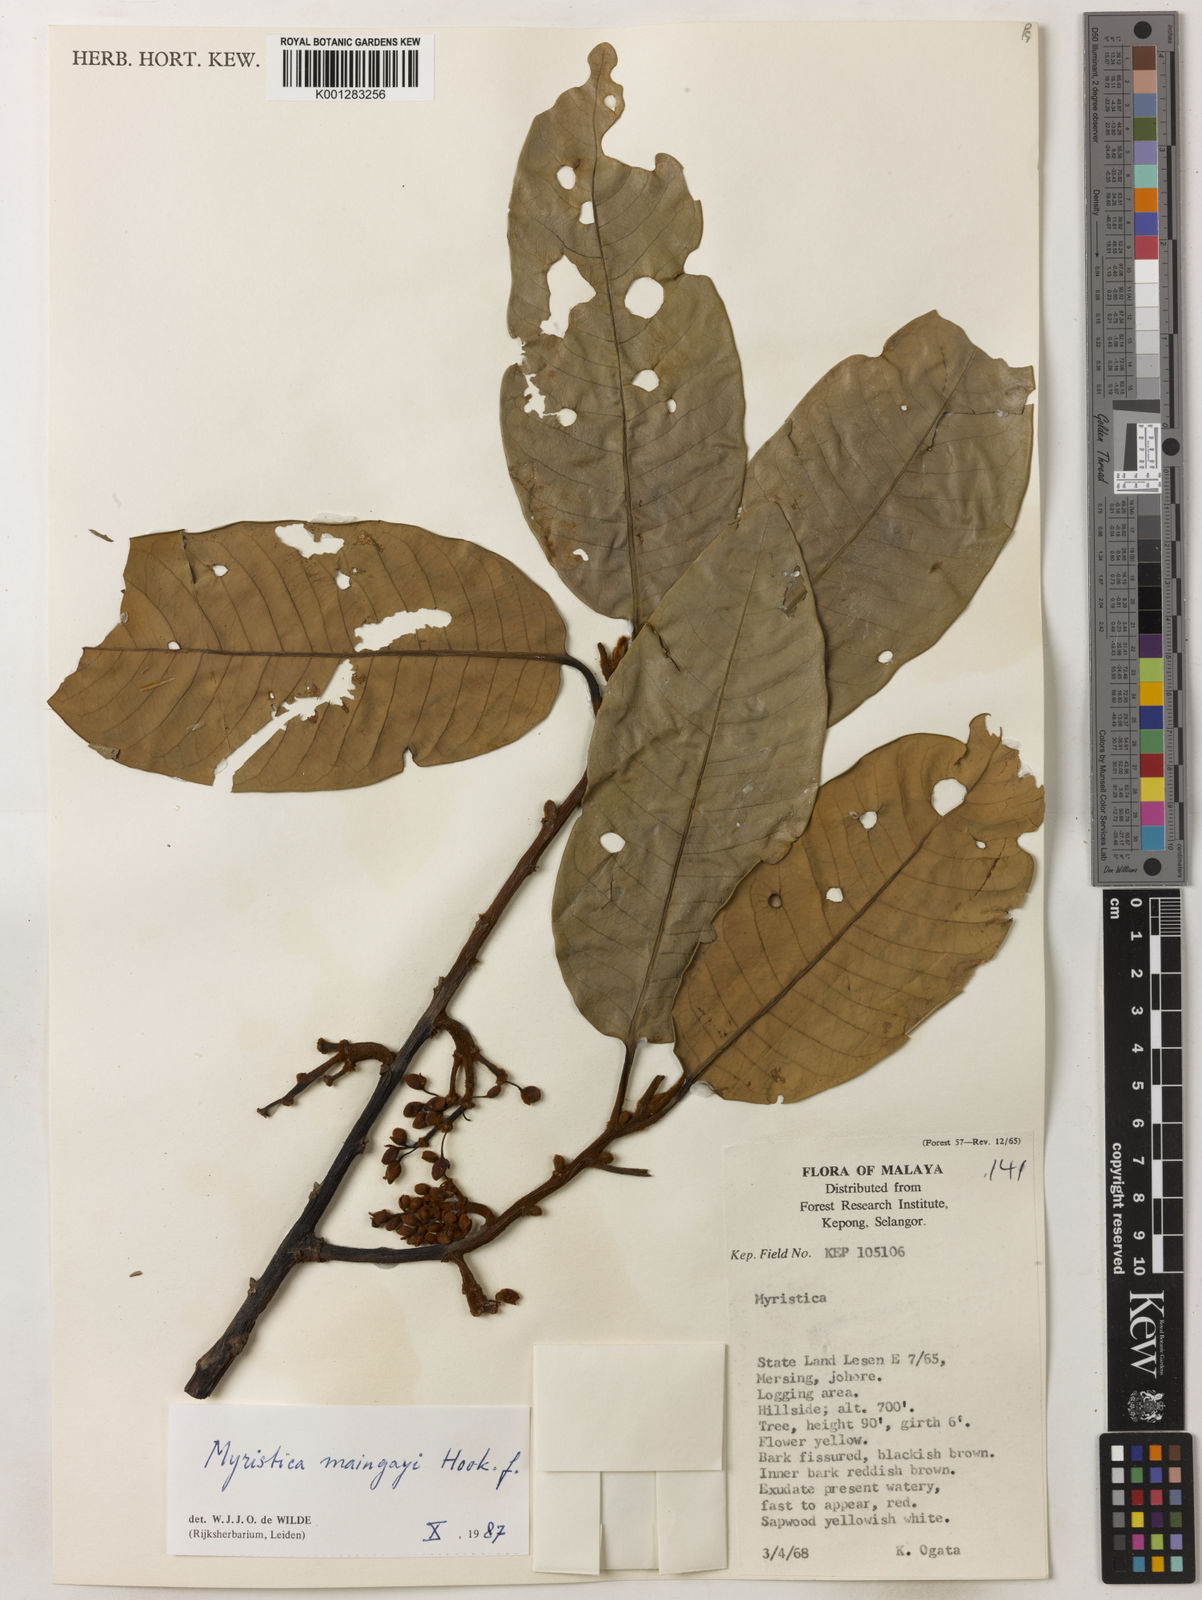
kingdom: Plantae
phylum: Tracheophyta
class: Magnoliopsida
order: Magnoliales
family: Myristicaceae
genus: Myristica
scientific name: Myristica maingayi
